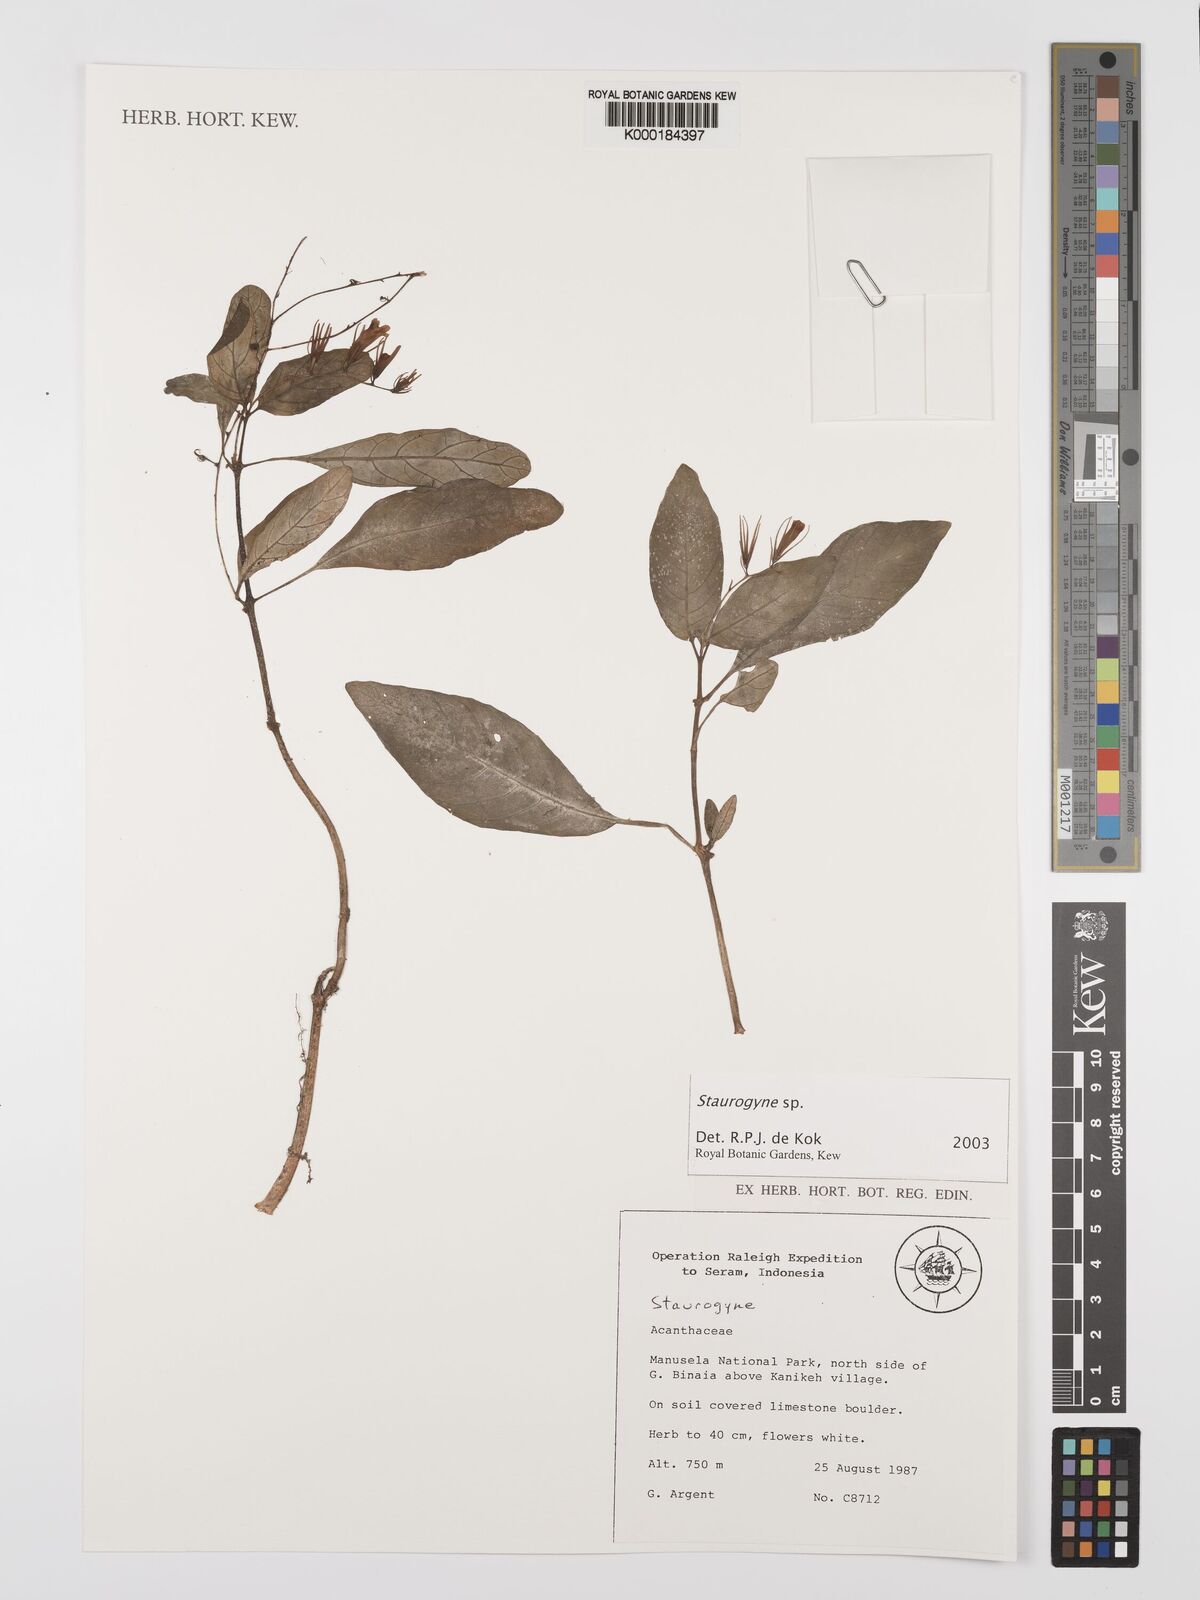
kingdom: Plantae
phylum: Tracheophyta
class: Magnoliopsida
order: Lamiales
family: Acanthaceae
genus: Staurogyne
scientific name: Staurogyne
